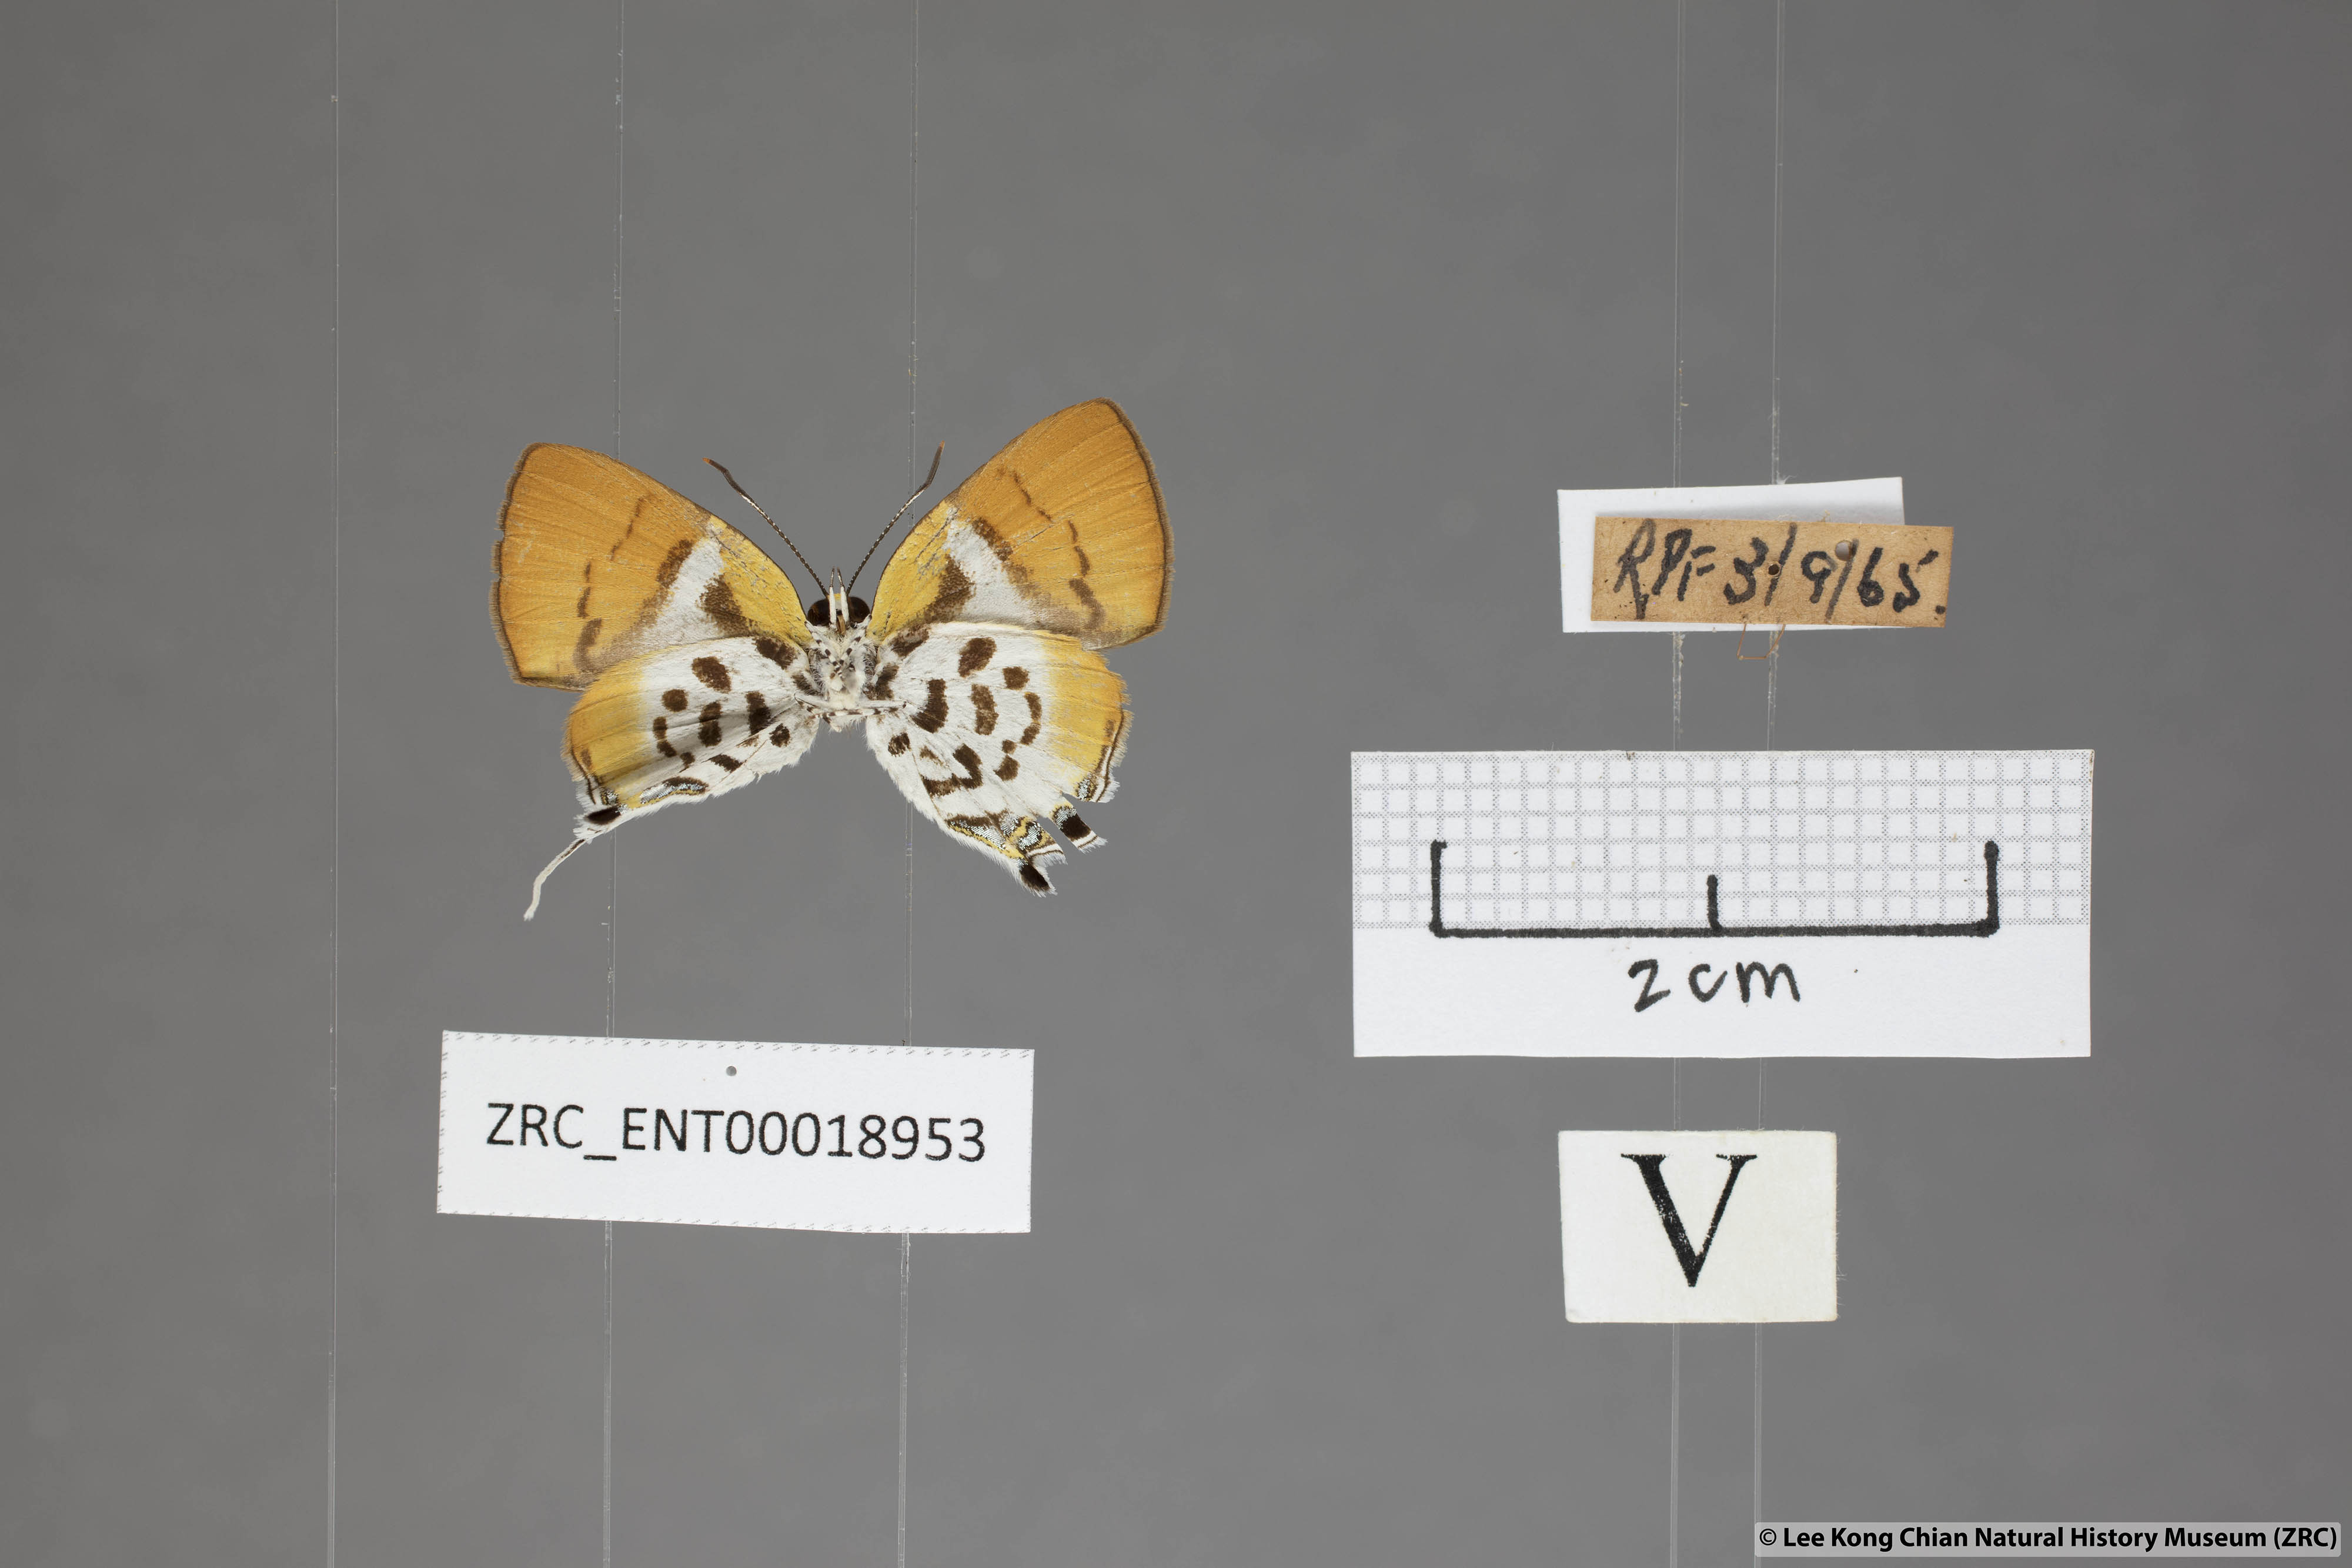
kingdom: Animalia
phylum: Arthropoda
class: Insecta
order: Lepidoptera
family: Lycaenidae
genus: Araotes
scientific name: Araotes lapithis
